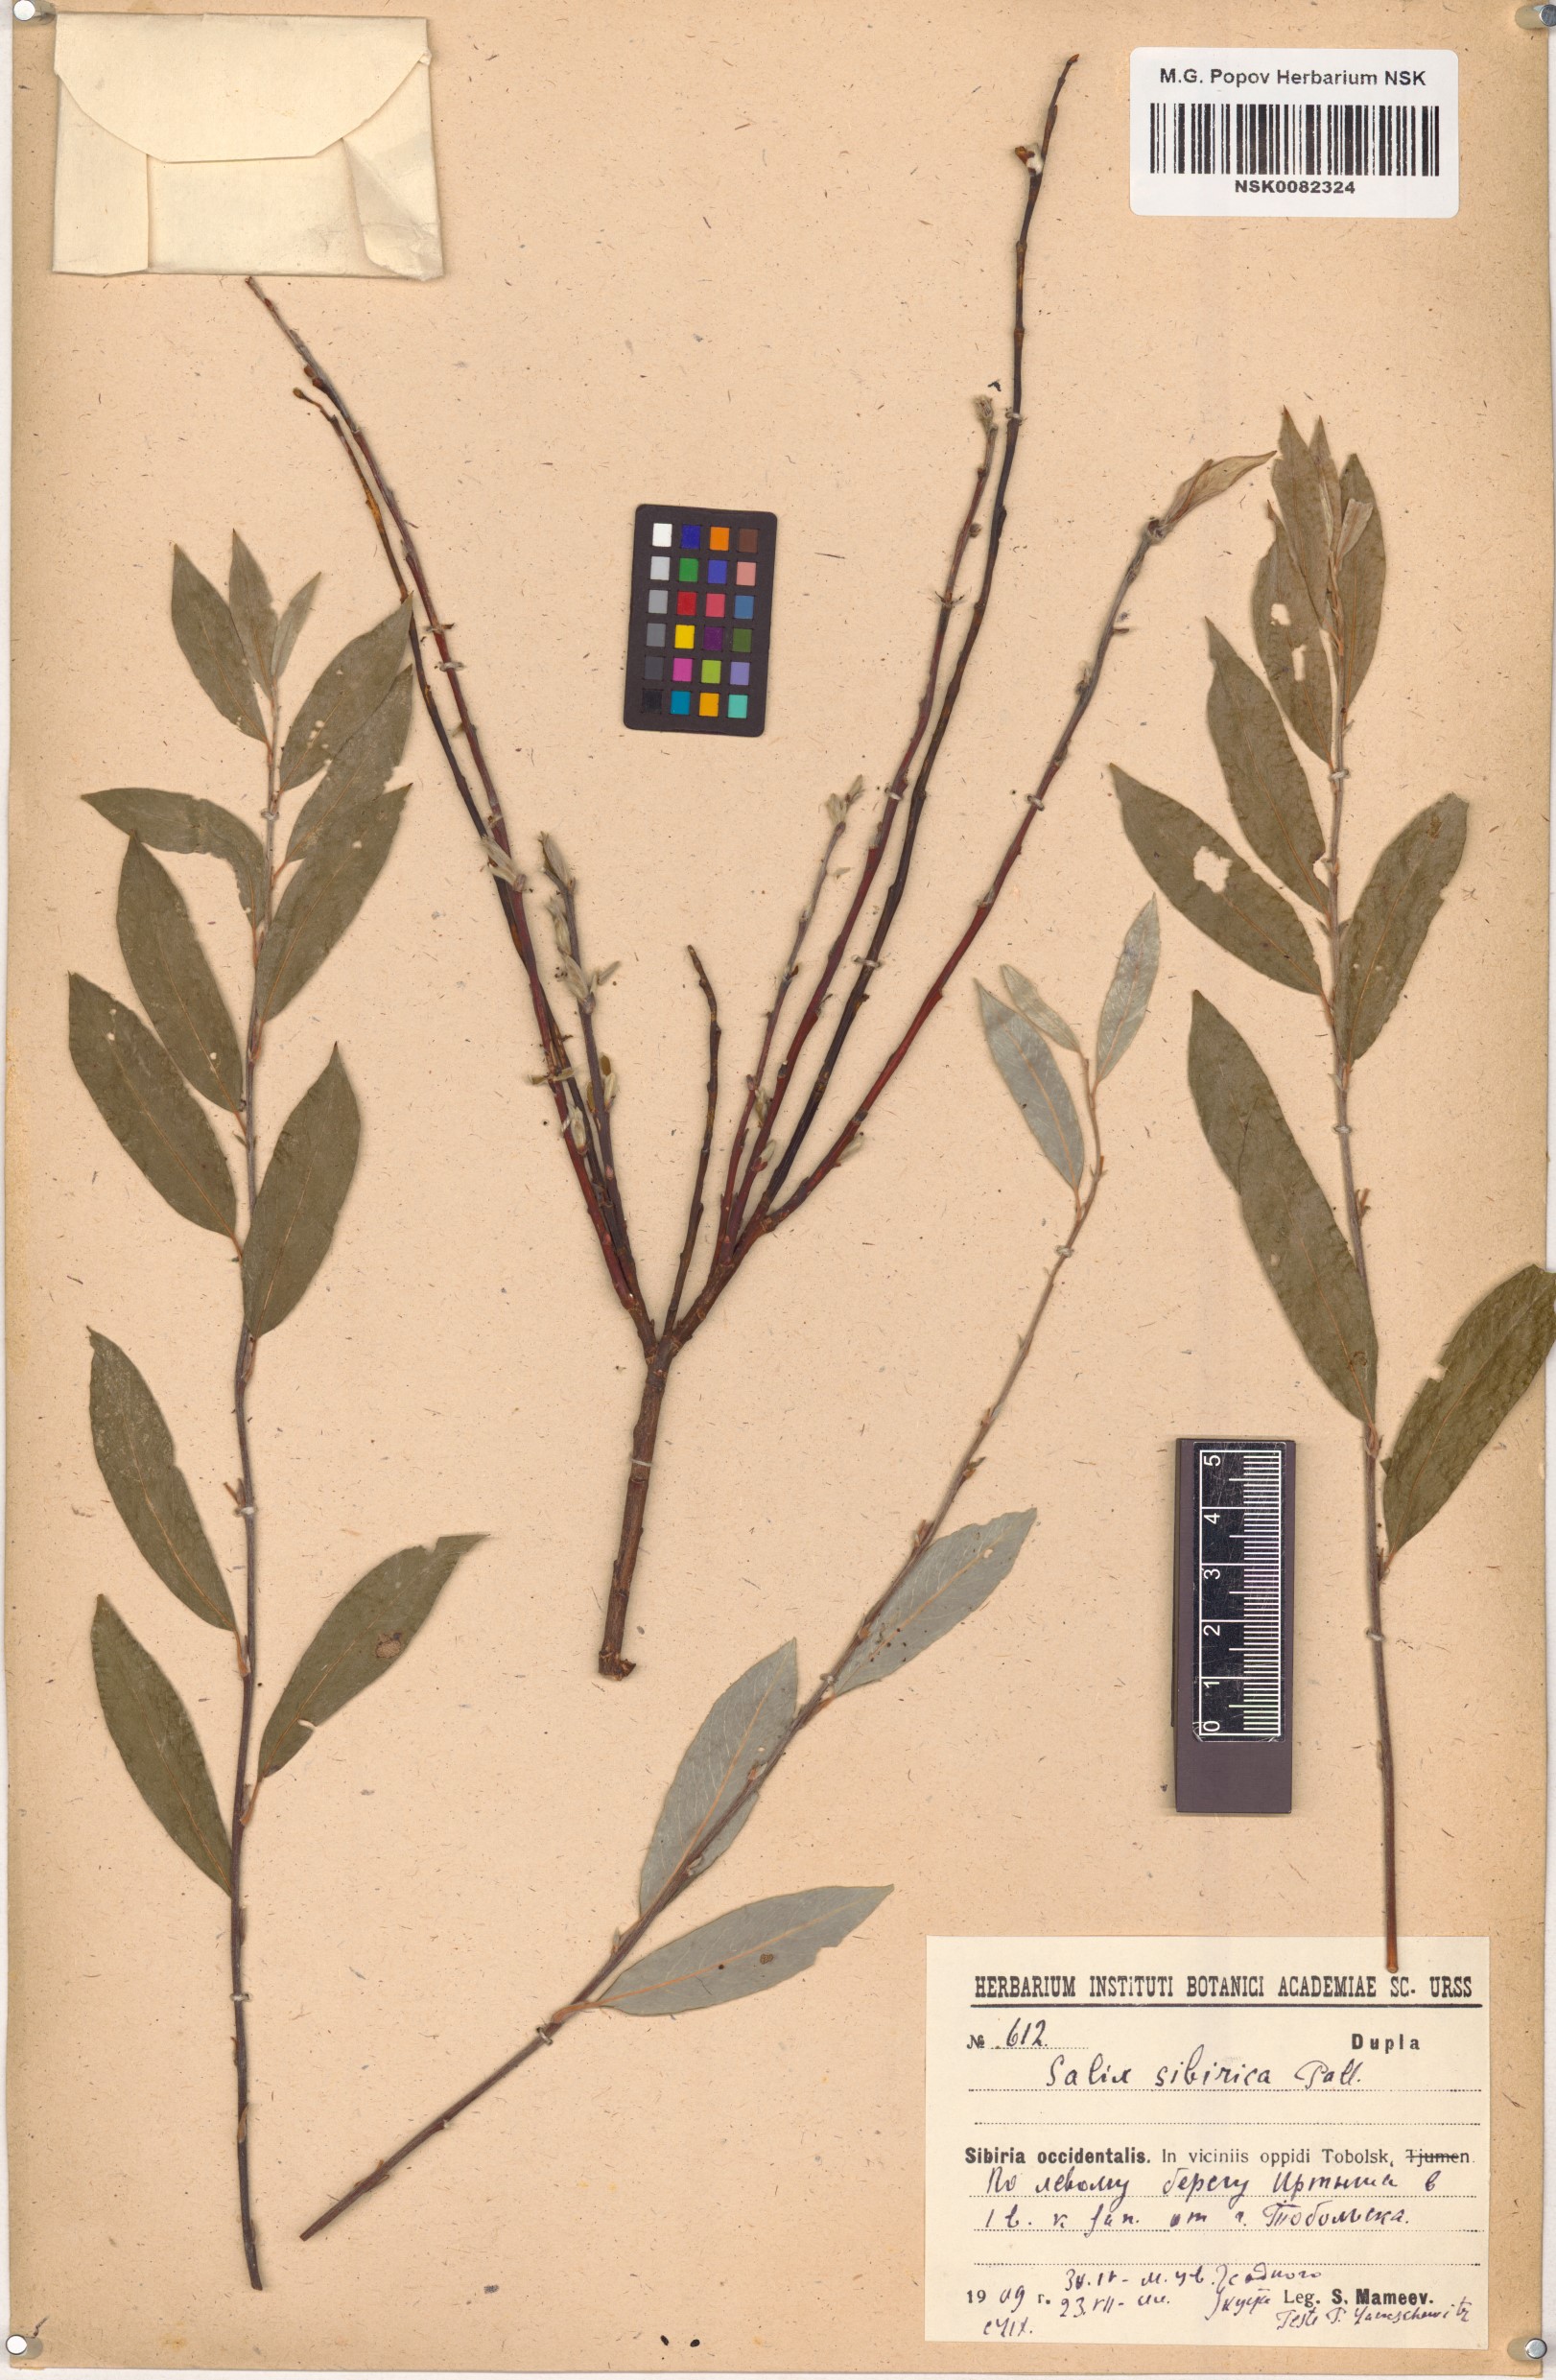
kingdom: Plantae
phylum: Tracheophyta
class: Magnoliopsida
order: Malpighiales
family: Salicaceae
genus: Salix
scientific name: Salix rosmarinifolia
